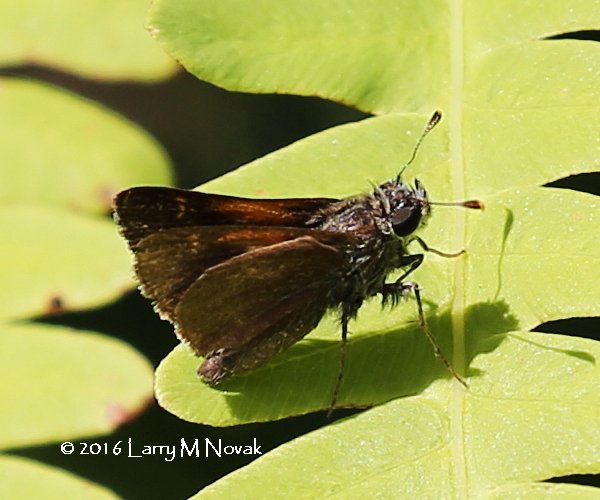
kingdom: Animalia
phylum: Arthropoda
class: Insecta
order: Lepidoptera
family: Hesperiidae
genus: Polites
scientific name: Polites themistocles
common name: Tawny-edged Skipper
